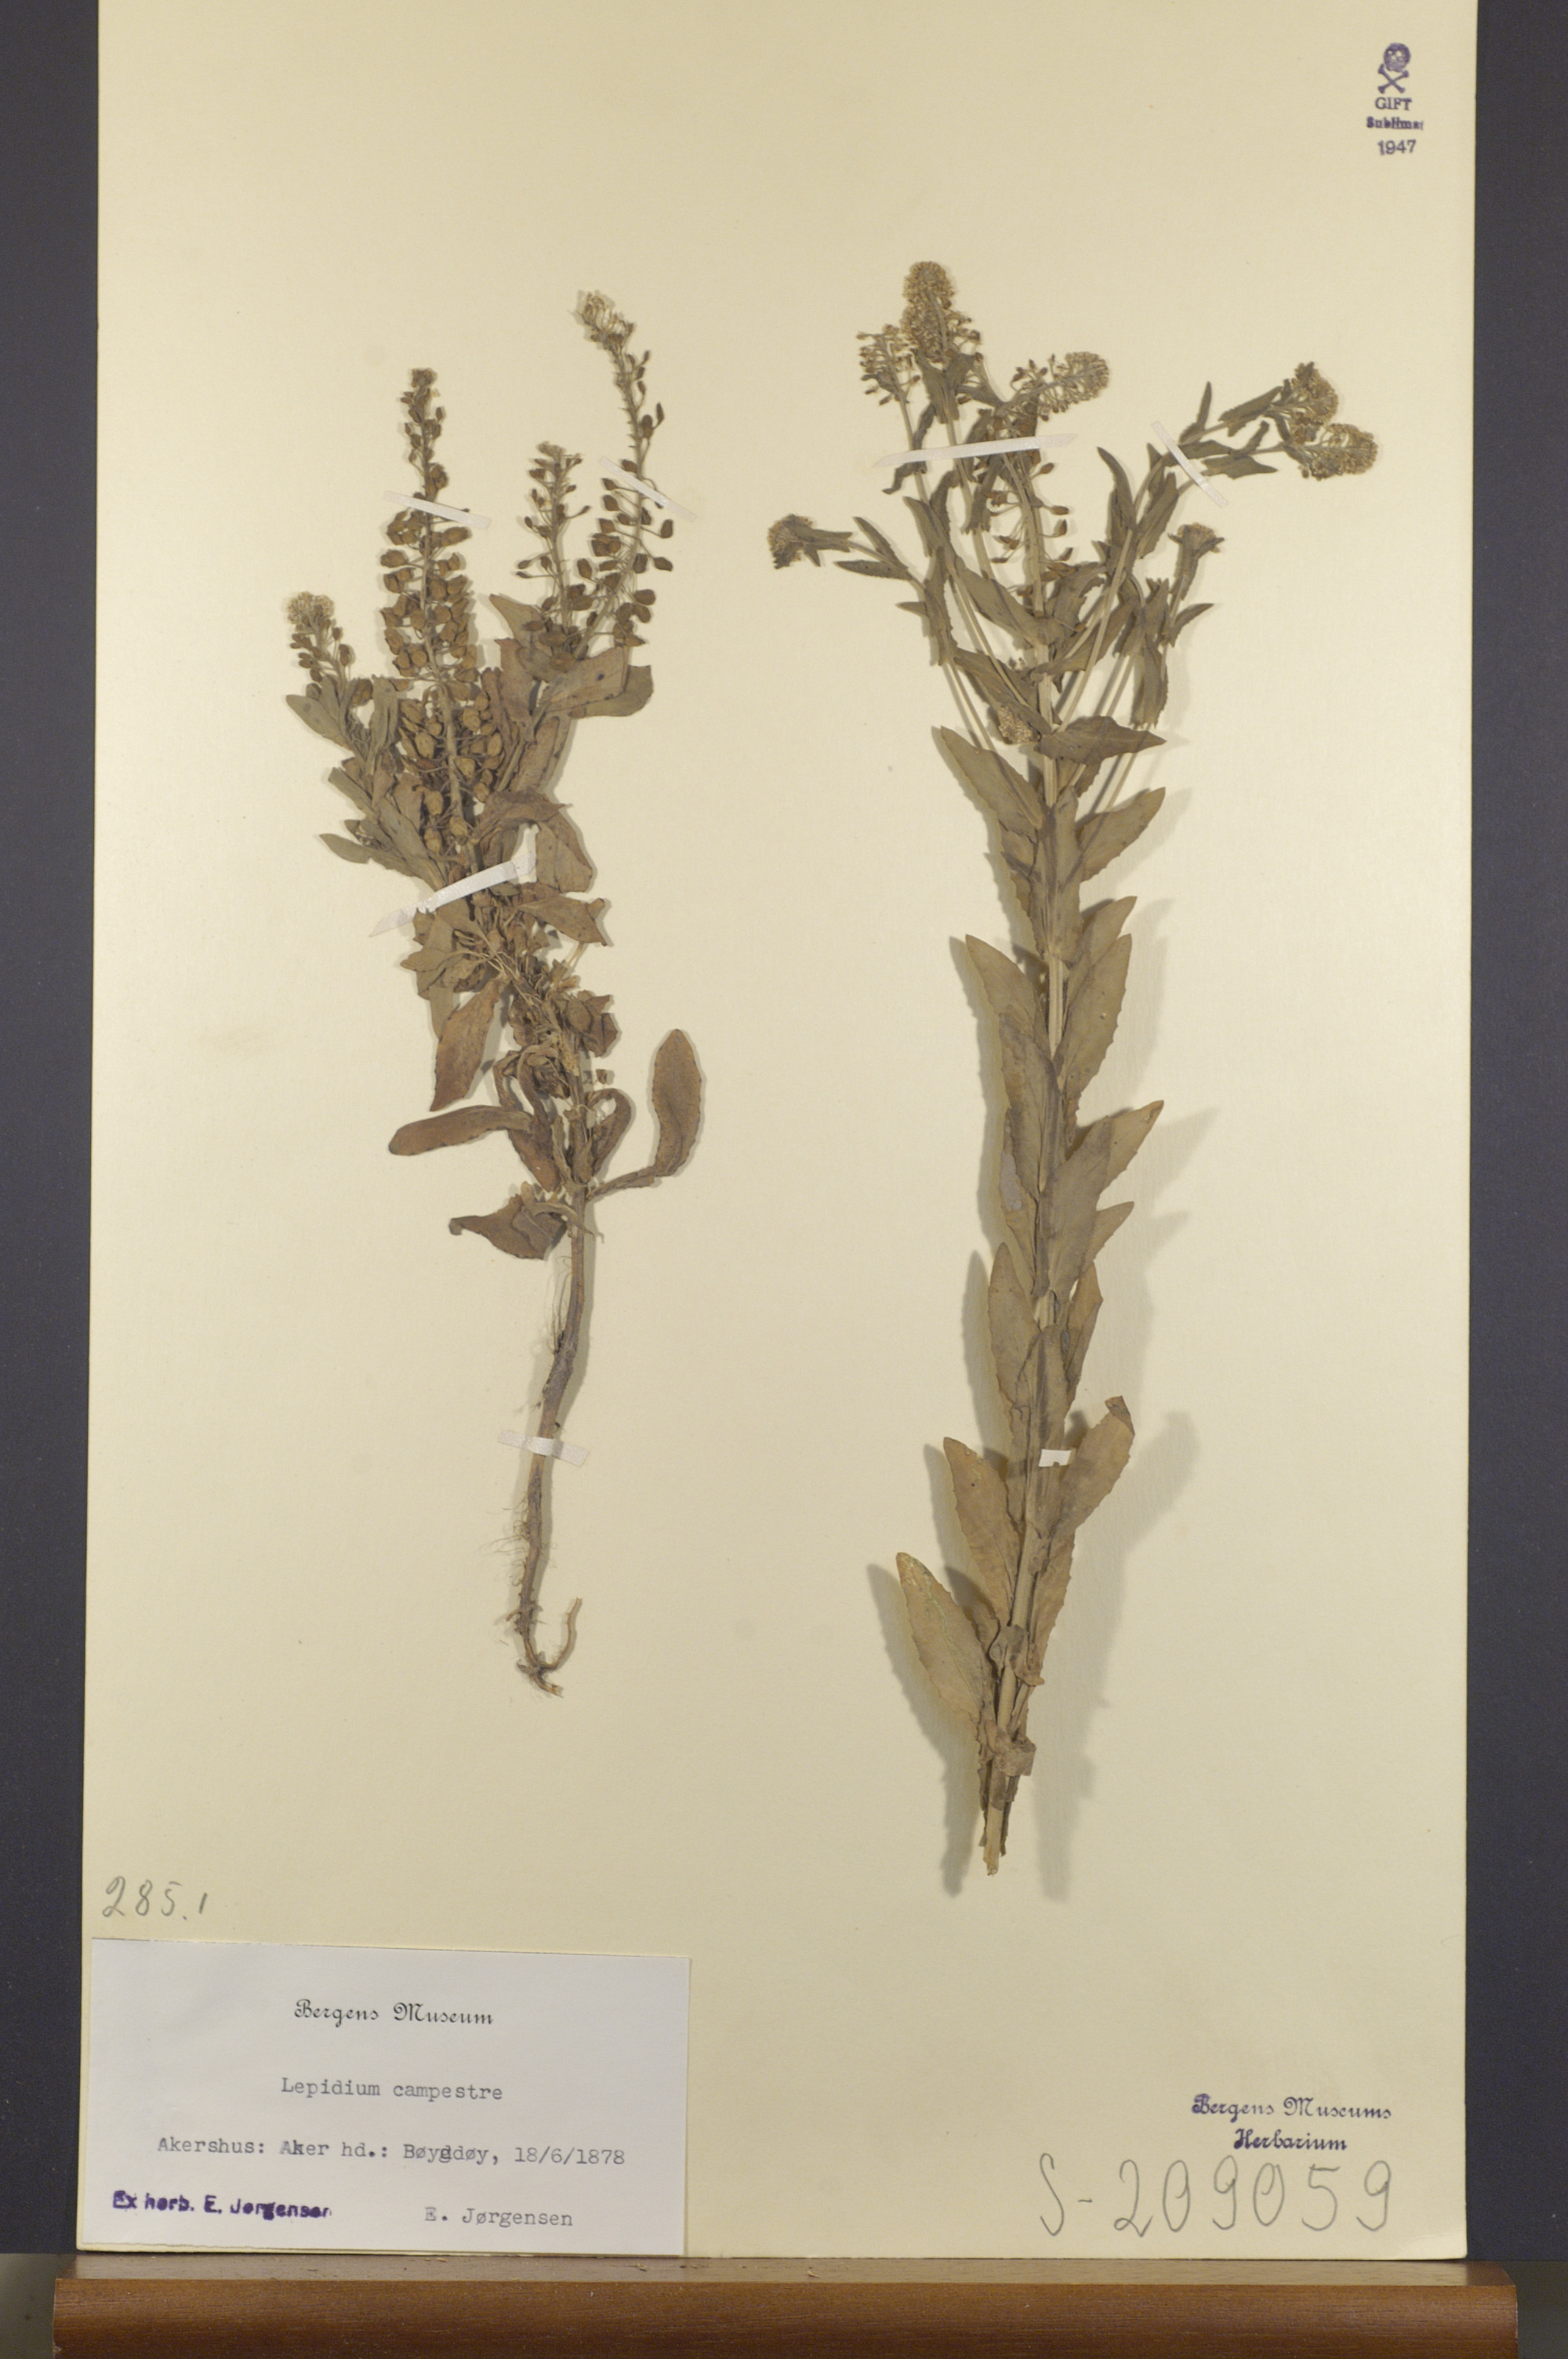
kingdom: Plantae
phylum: Tracheophyta
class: Magnoliopsida
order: Brassicales
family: Brassicaceae
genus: Lepidium
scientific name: Lepidium campestre
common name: Field pepperwort
